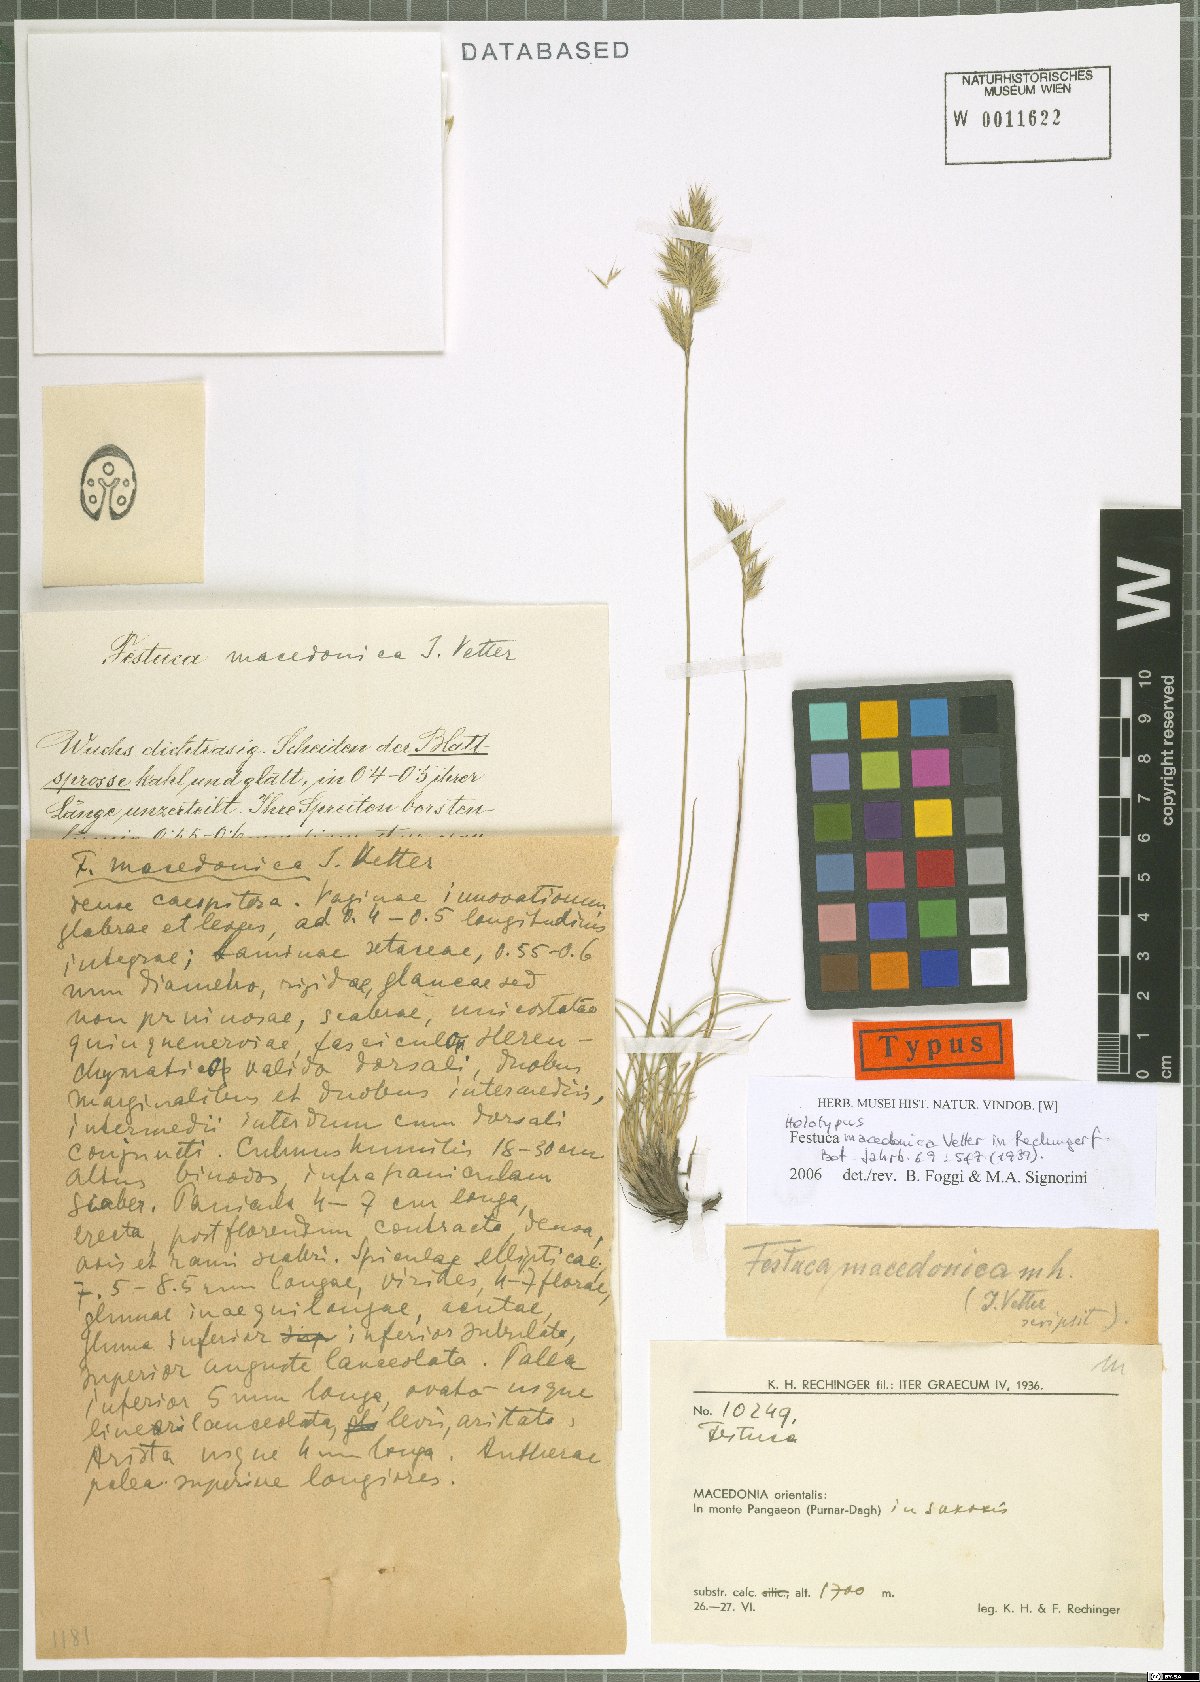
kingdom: Plantae
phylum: Tracheophyta
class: Liliopsida
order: Poales
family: Poaceae
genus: Festuca
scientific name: Festuca macedonica
